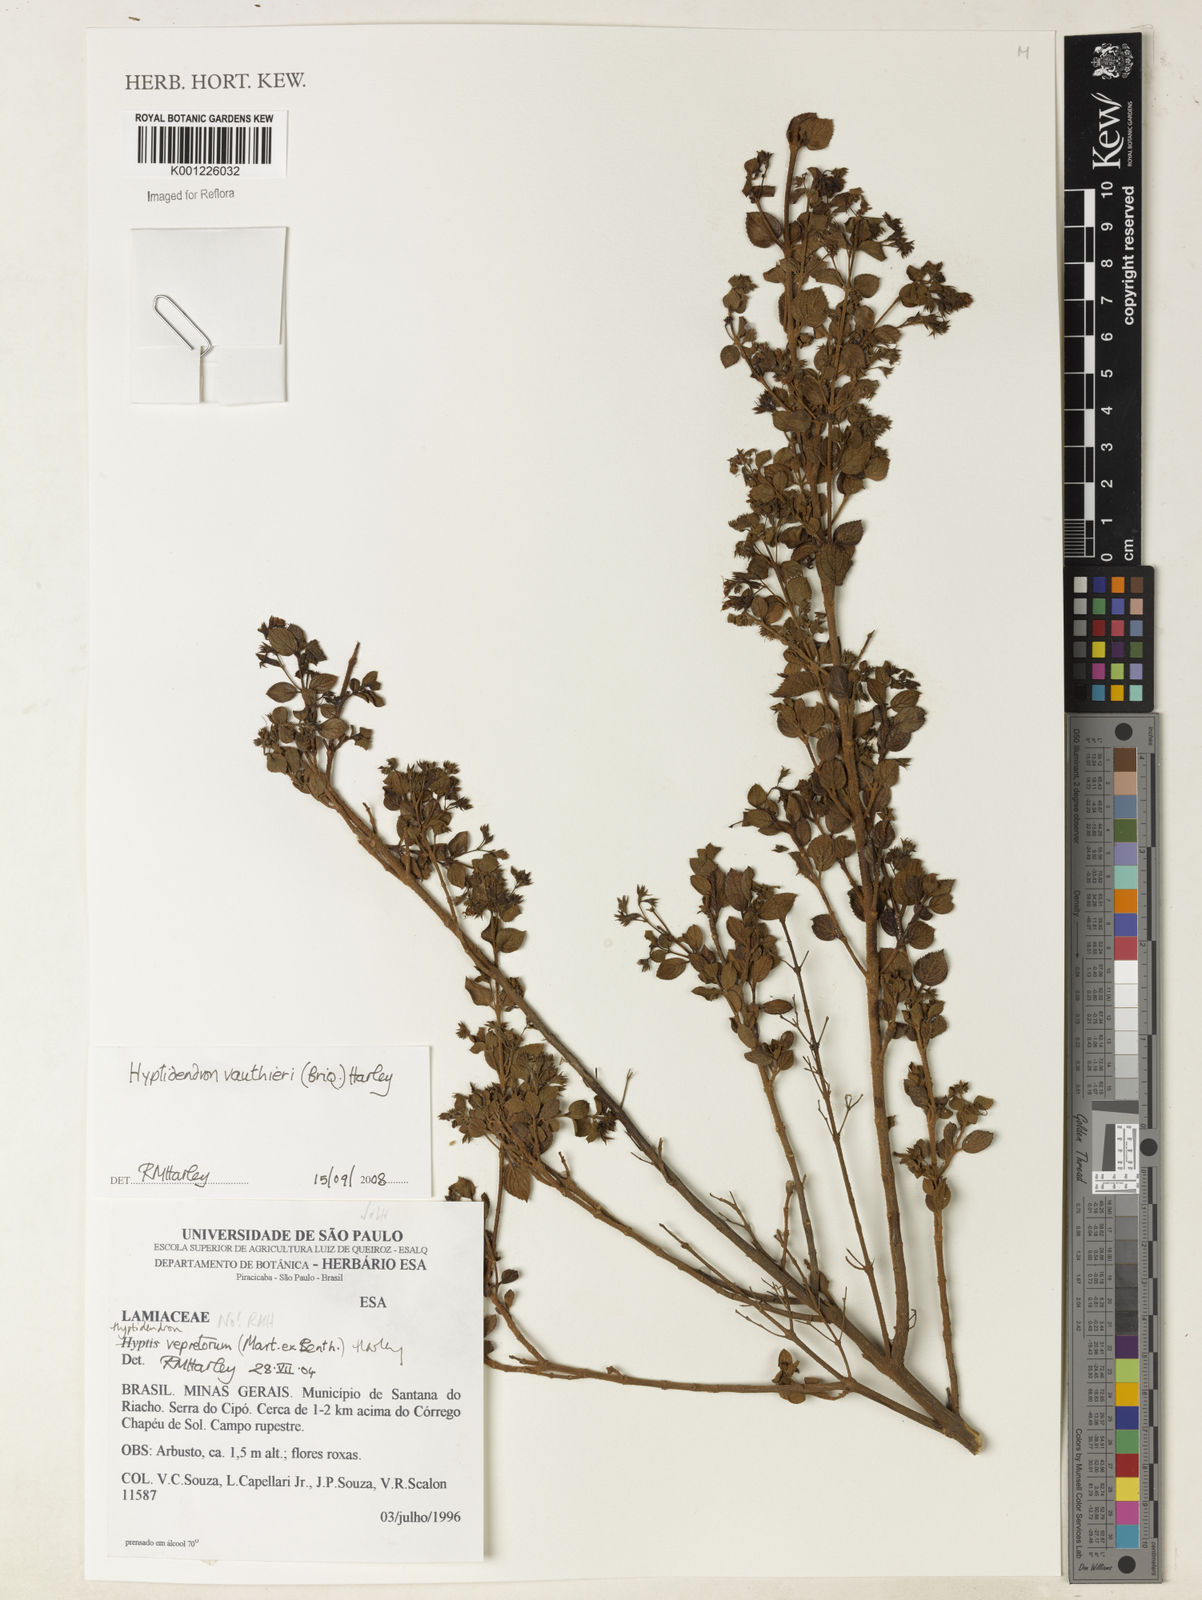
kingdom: Plantae
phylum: Tracheophyta
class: Magnoliopsida
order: Lamiales
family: Lamiaceae
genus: Hyptidendron
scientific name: Hyptidendron vauthieri
